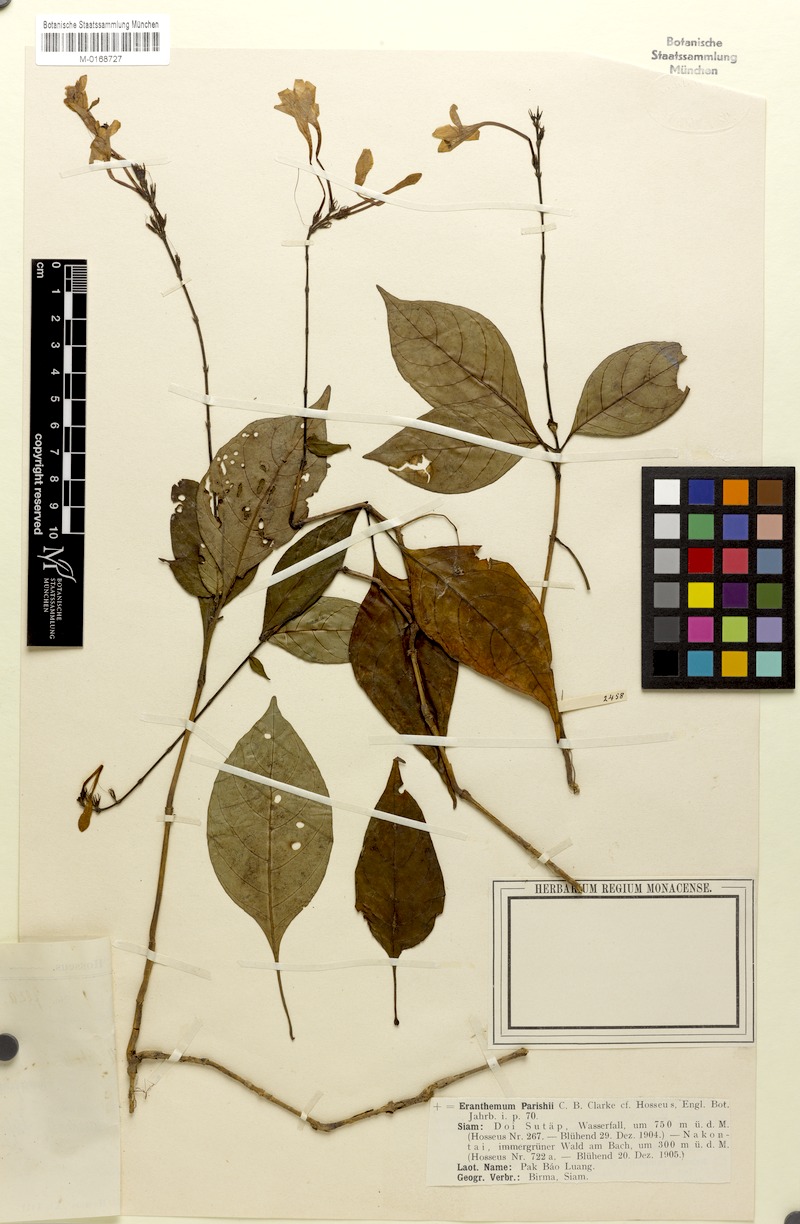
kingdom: Plantae
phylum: Tracheophyta
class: Magnoliopsida
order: Lamiales
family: Acanthaceae
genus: Pseuderanthemum
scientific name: Pseuderanthemum parishii
